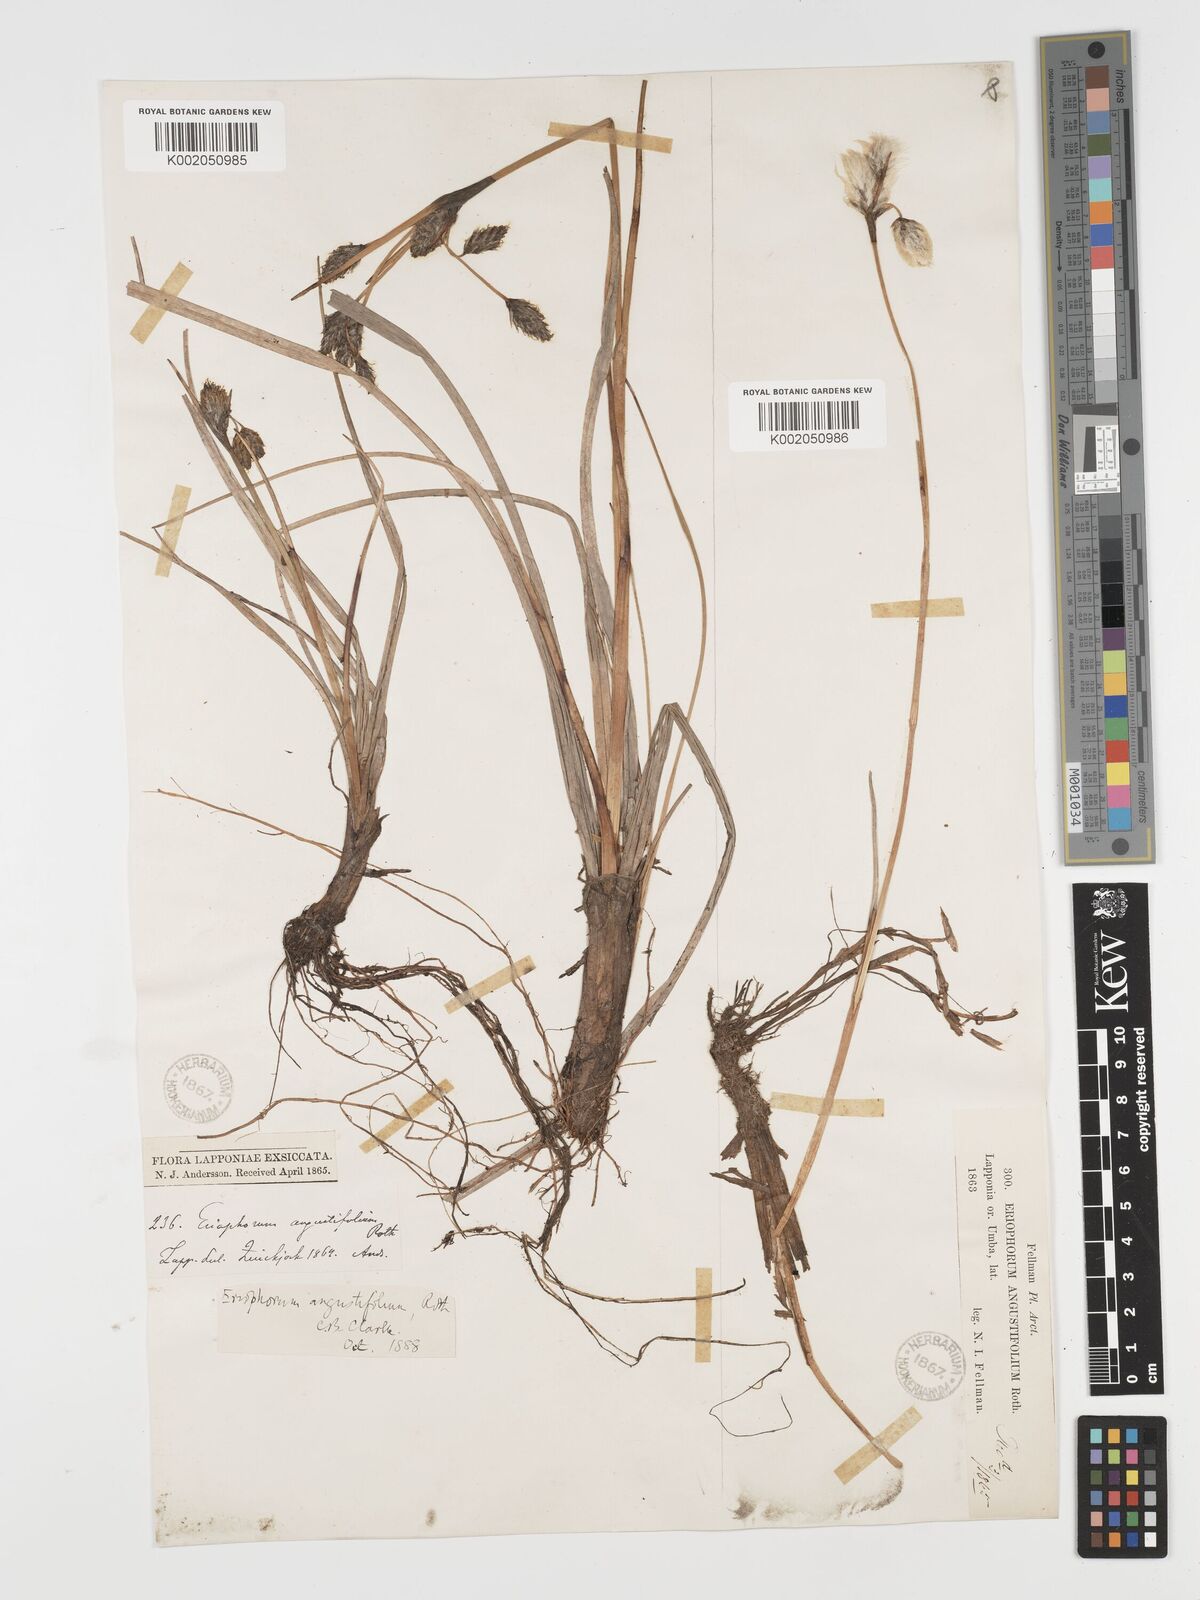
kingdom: Plantae
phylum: Tracheophyta
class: Liliopsida
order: Poales
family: Cyperaceae
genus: Eriophorum
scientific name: Eriophorum angustifolium
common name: Common cottongrass
